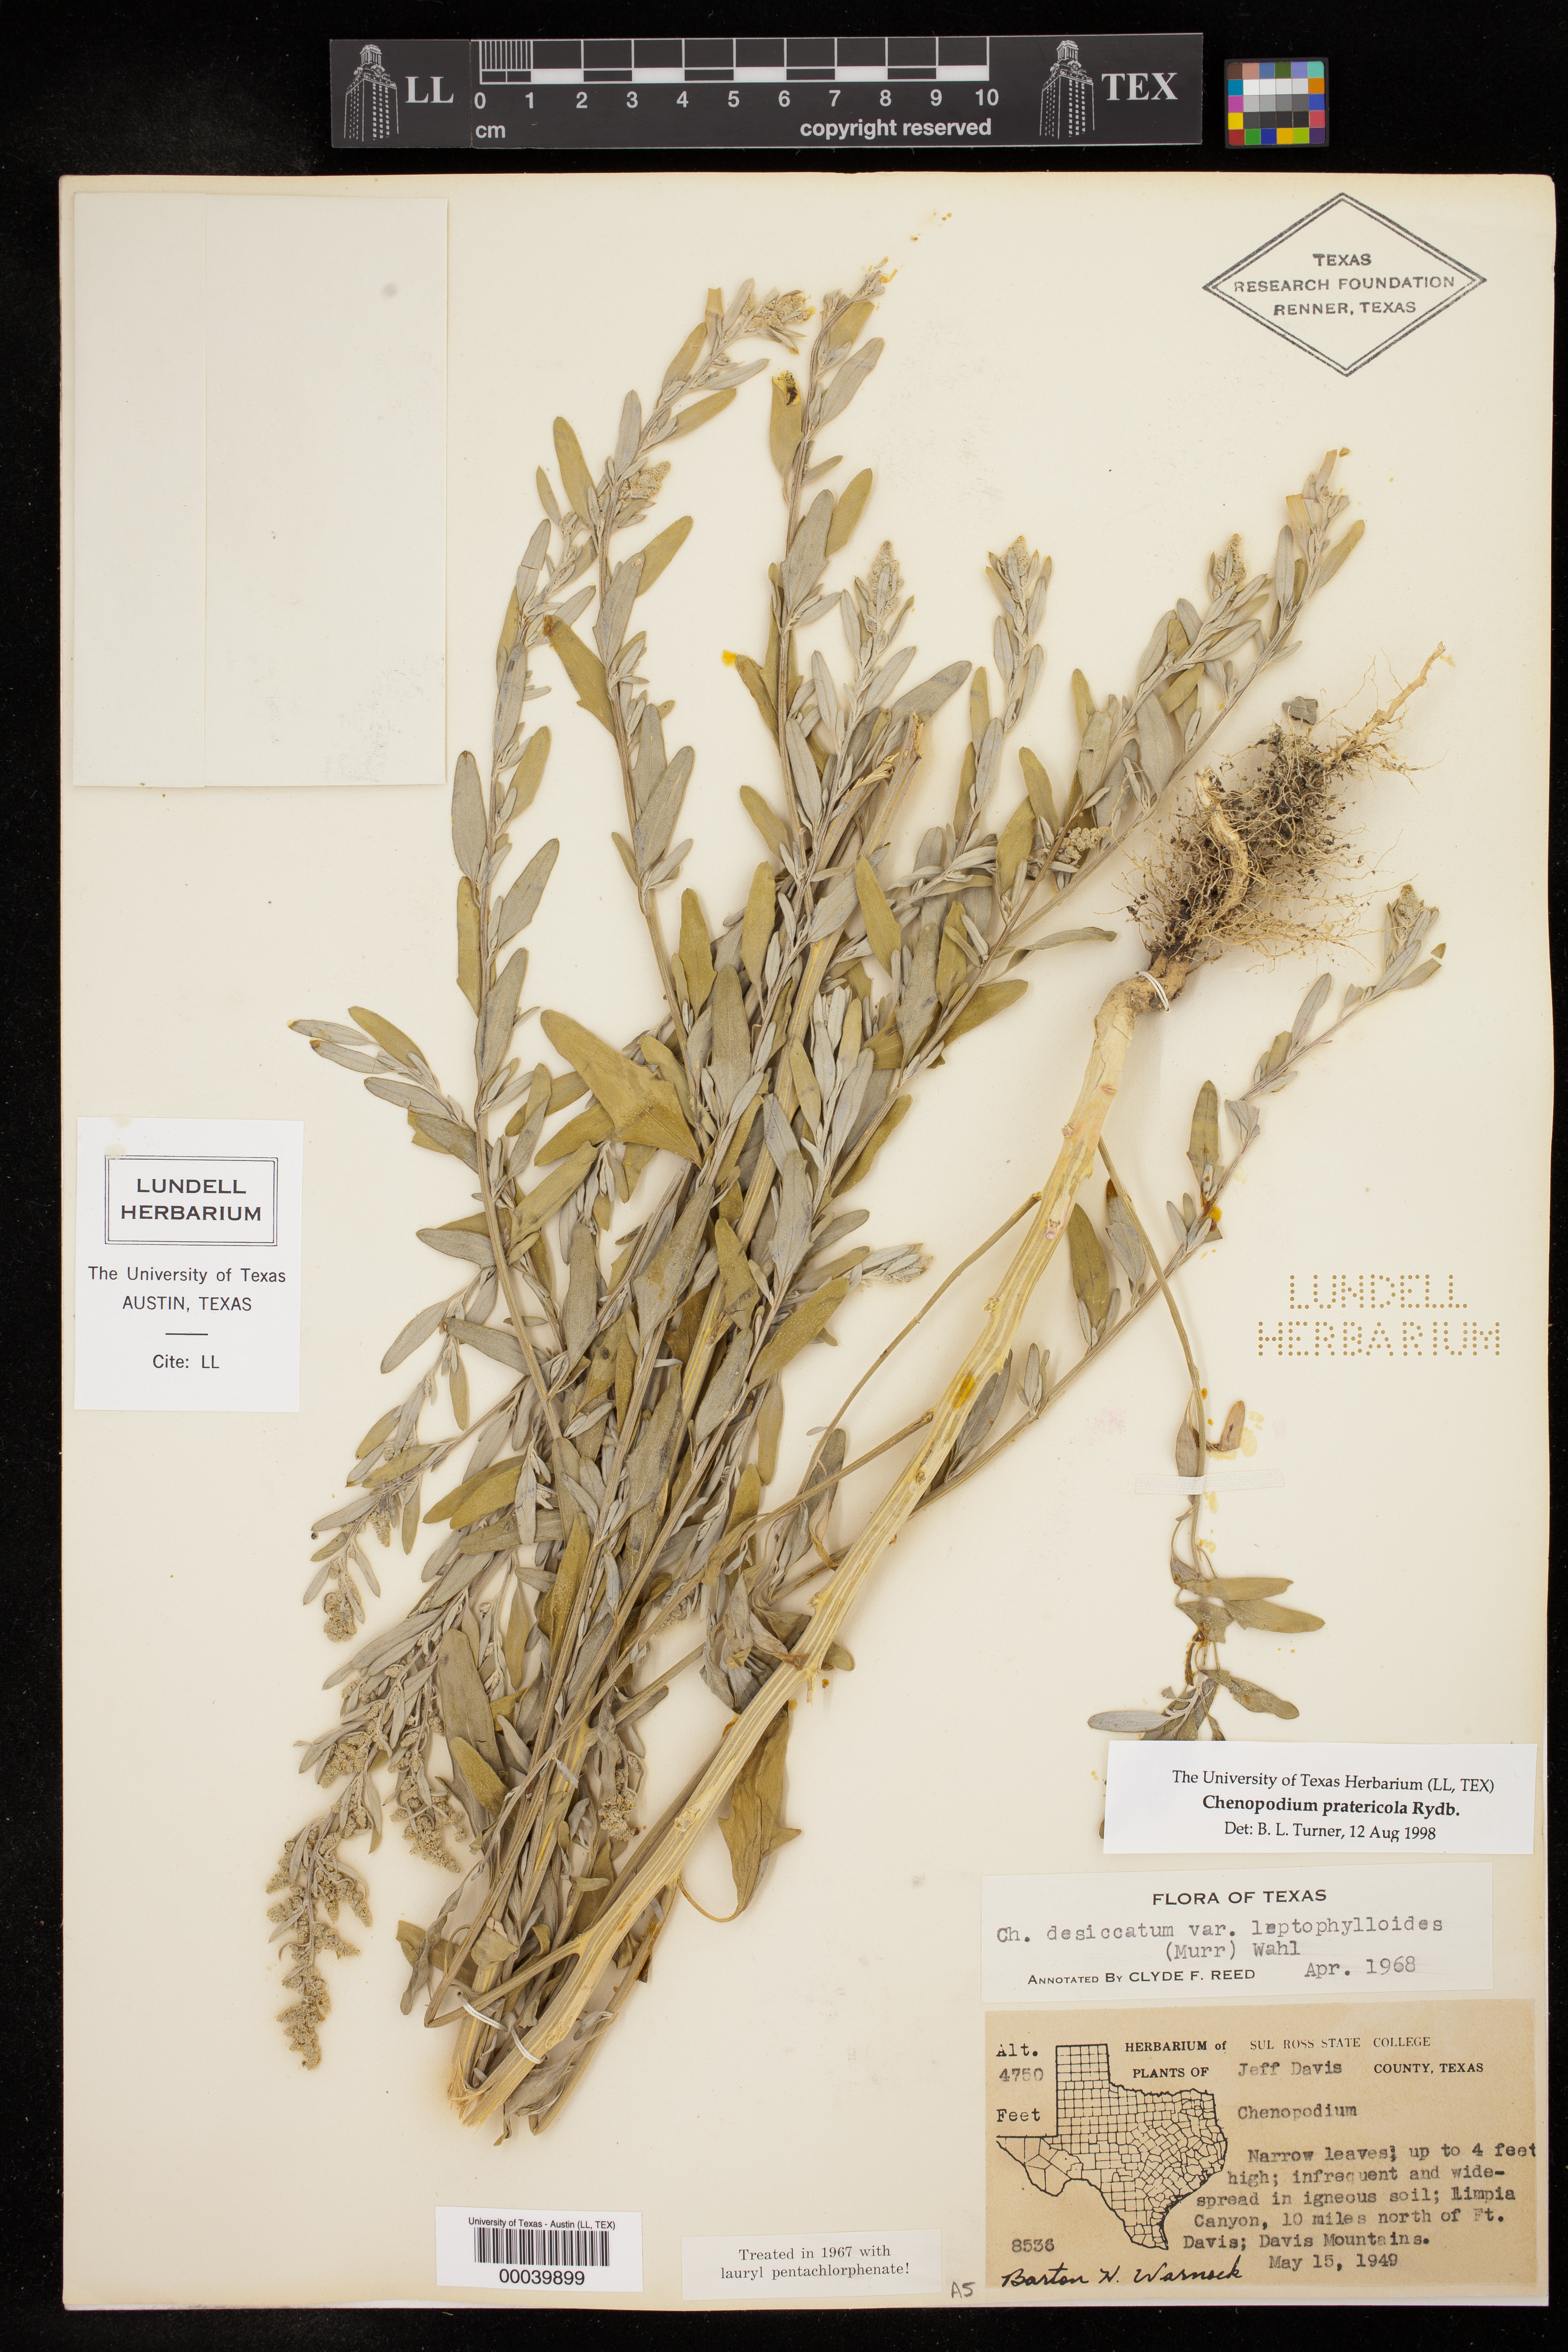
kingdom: Plantae
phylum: Tracheophyta
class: Magnoliopsida
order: Caryophyllales
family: Amaranthaceae
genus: Chenopodium
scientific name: Chenopodium pratericola
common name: Desert goosefoot
